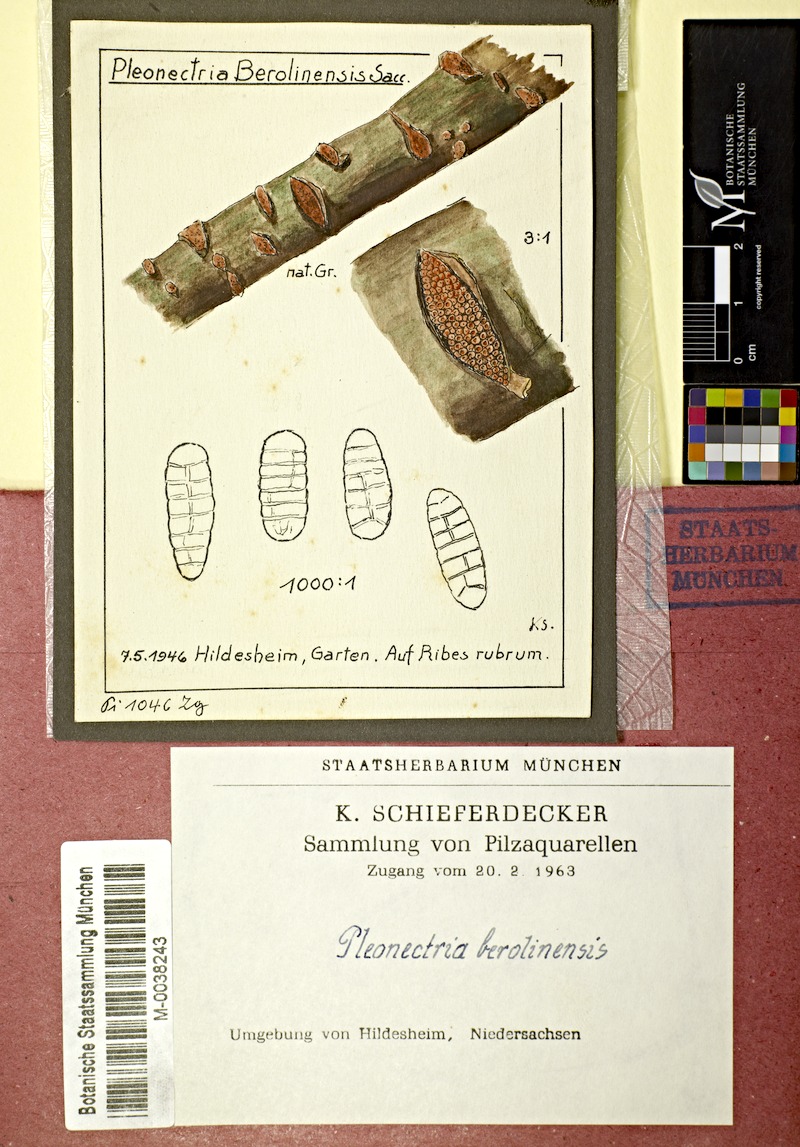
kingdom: Fungi
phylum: Ascomycota
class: Sordariomycetes
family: Thyridiaceae
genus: Thyronectria
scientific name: Thyronectria berolinensis
